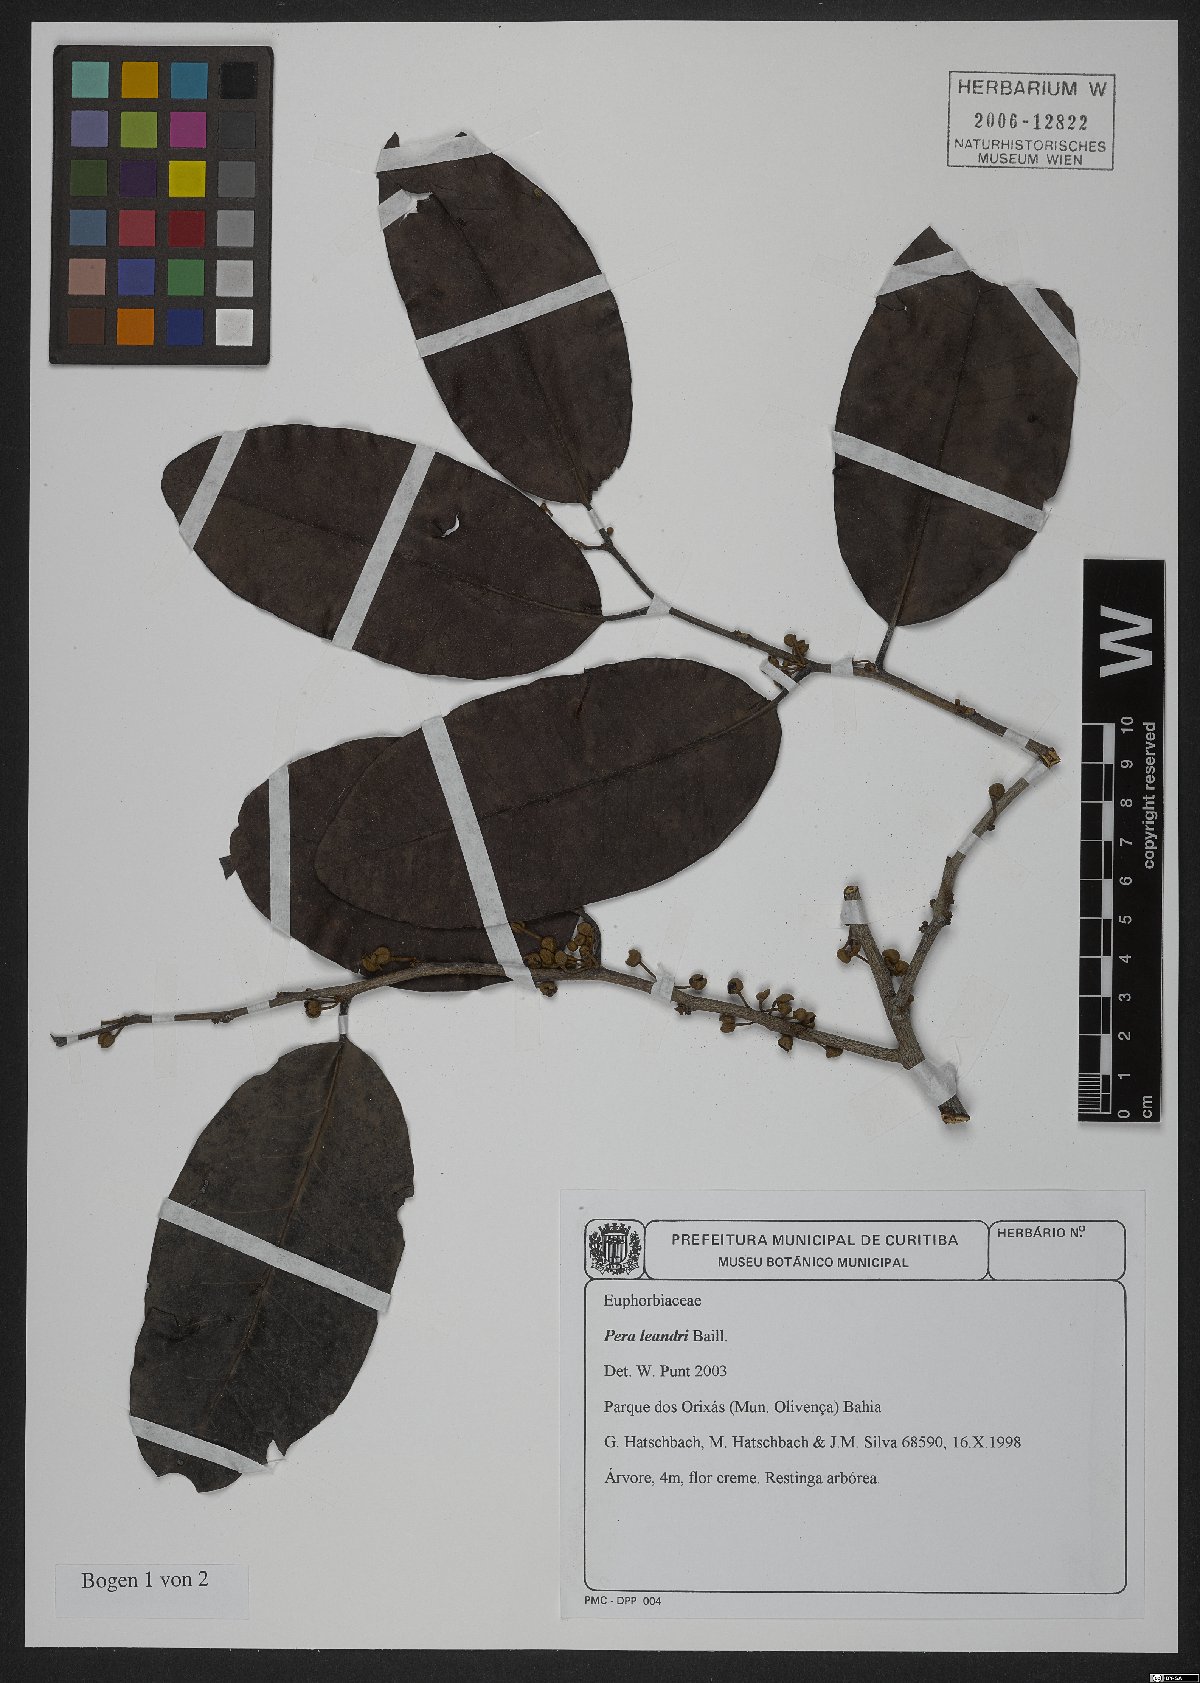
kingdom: Plantae
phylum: Tracheophyta
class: Magnoliopsida
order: Malpighiales
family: Peraceae
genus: Pera
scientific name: Pera heteranthera
